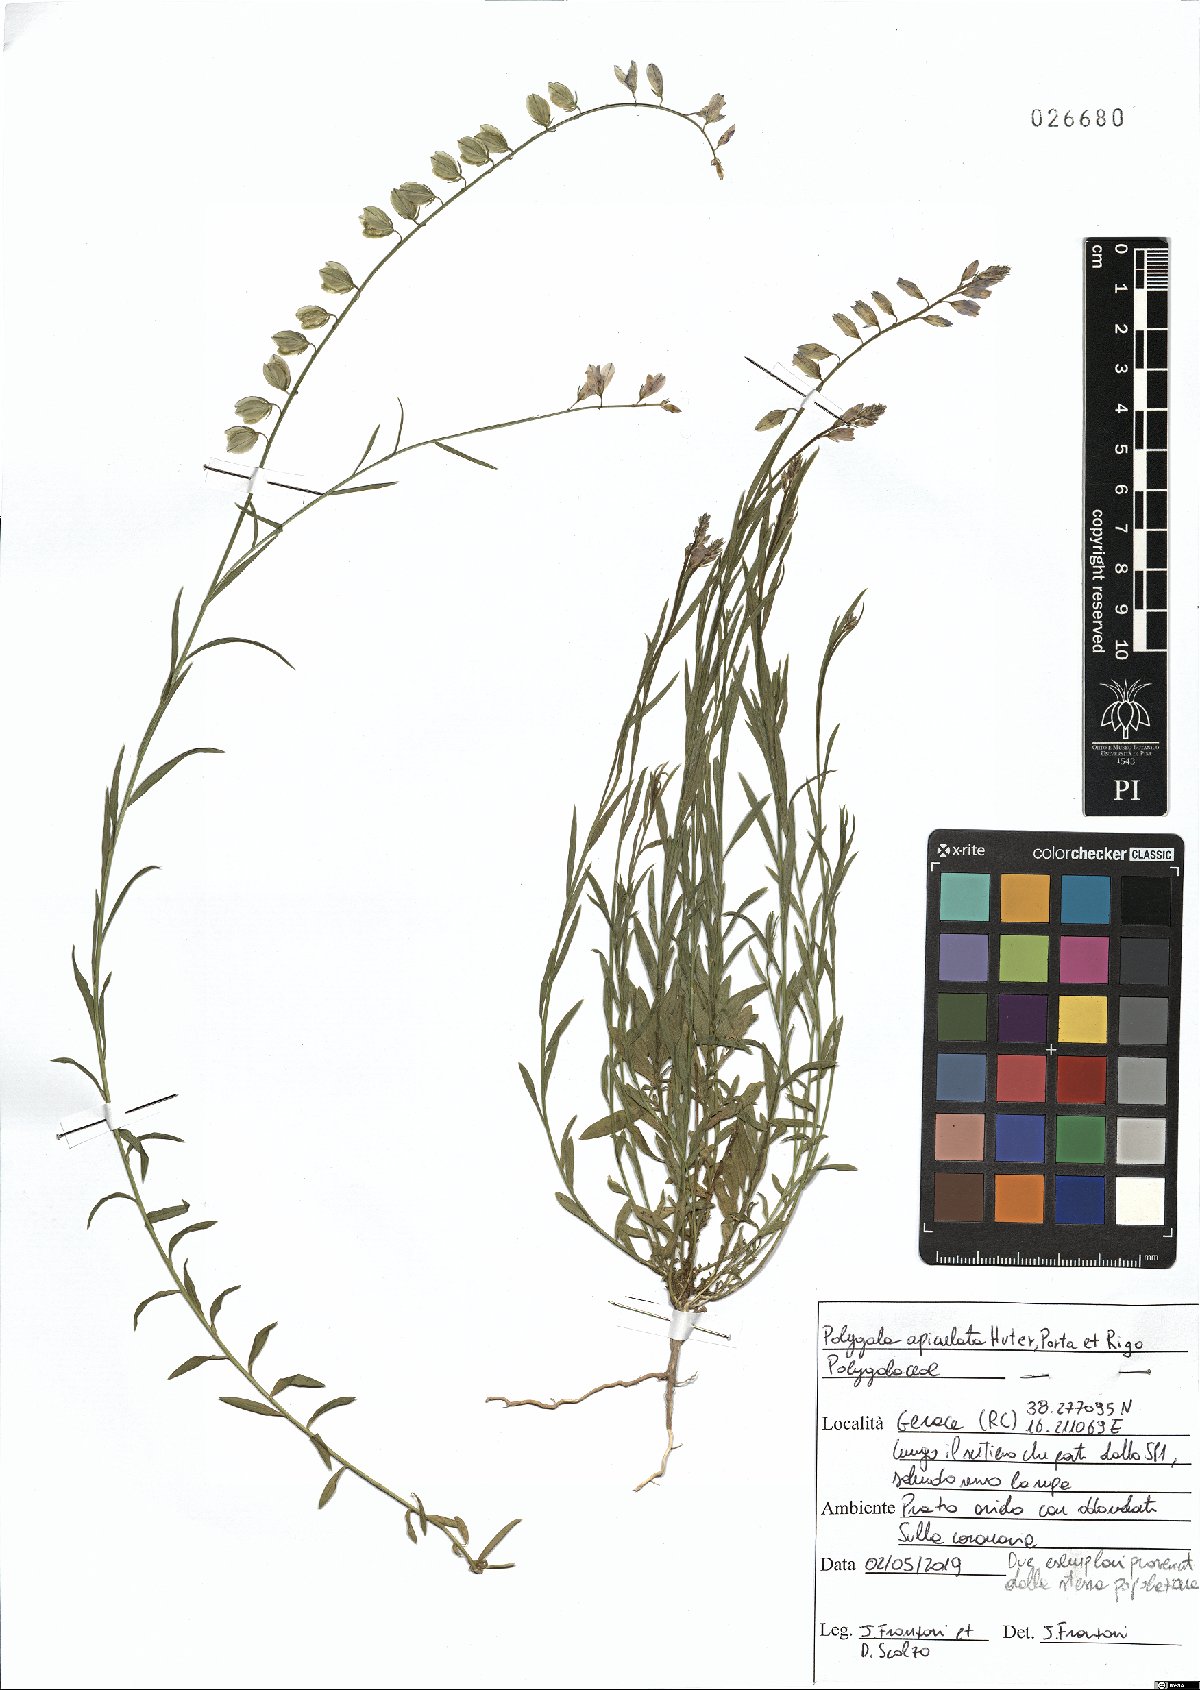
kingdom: Plantae
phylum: Tracheophyta
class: Magnoliopsida
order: Fabales
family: Polygalaceae
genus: Polygala
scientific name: Polygala apiculata
